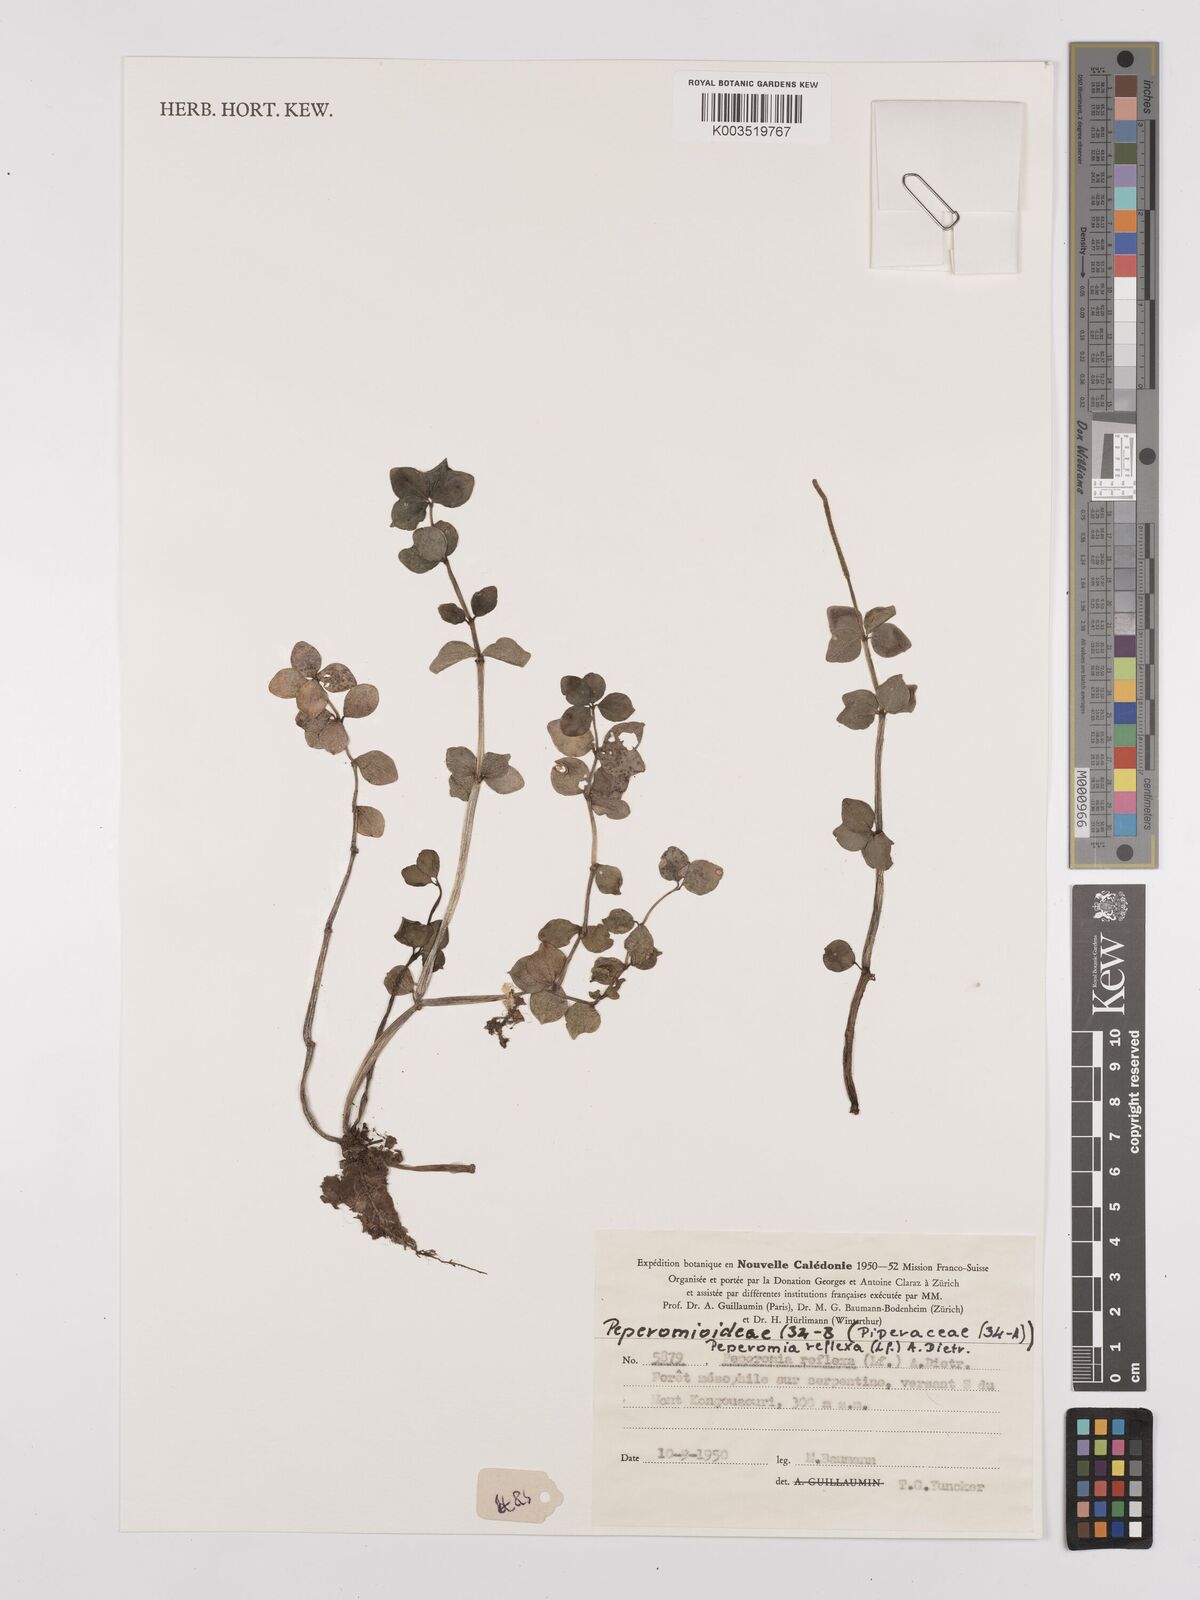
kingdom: Plantae
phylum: Tracheophyta
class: Magnoliopsida
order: Piperales
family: Piperaceae
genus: Peperomia
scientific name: Peperomia tetraphylla
